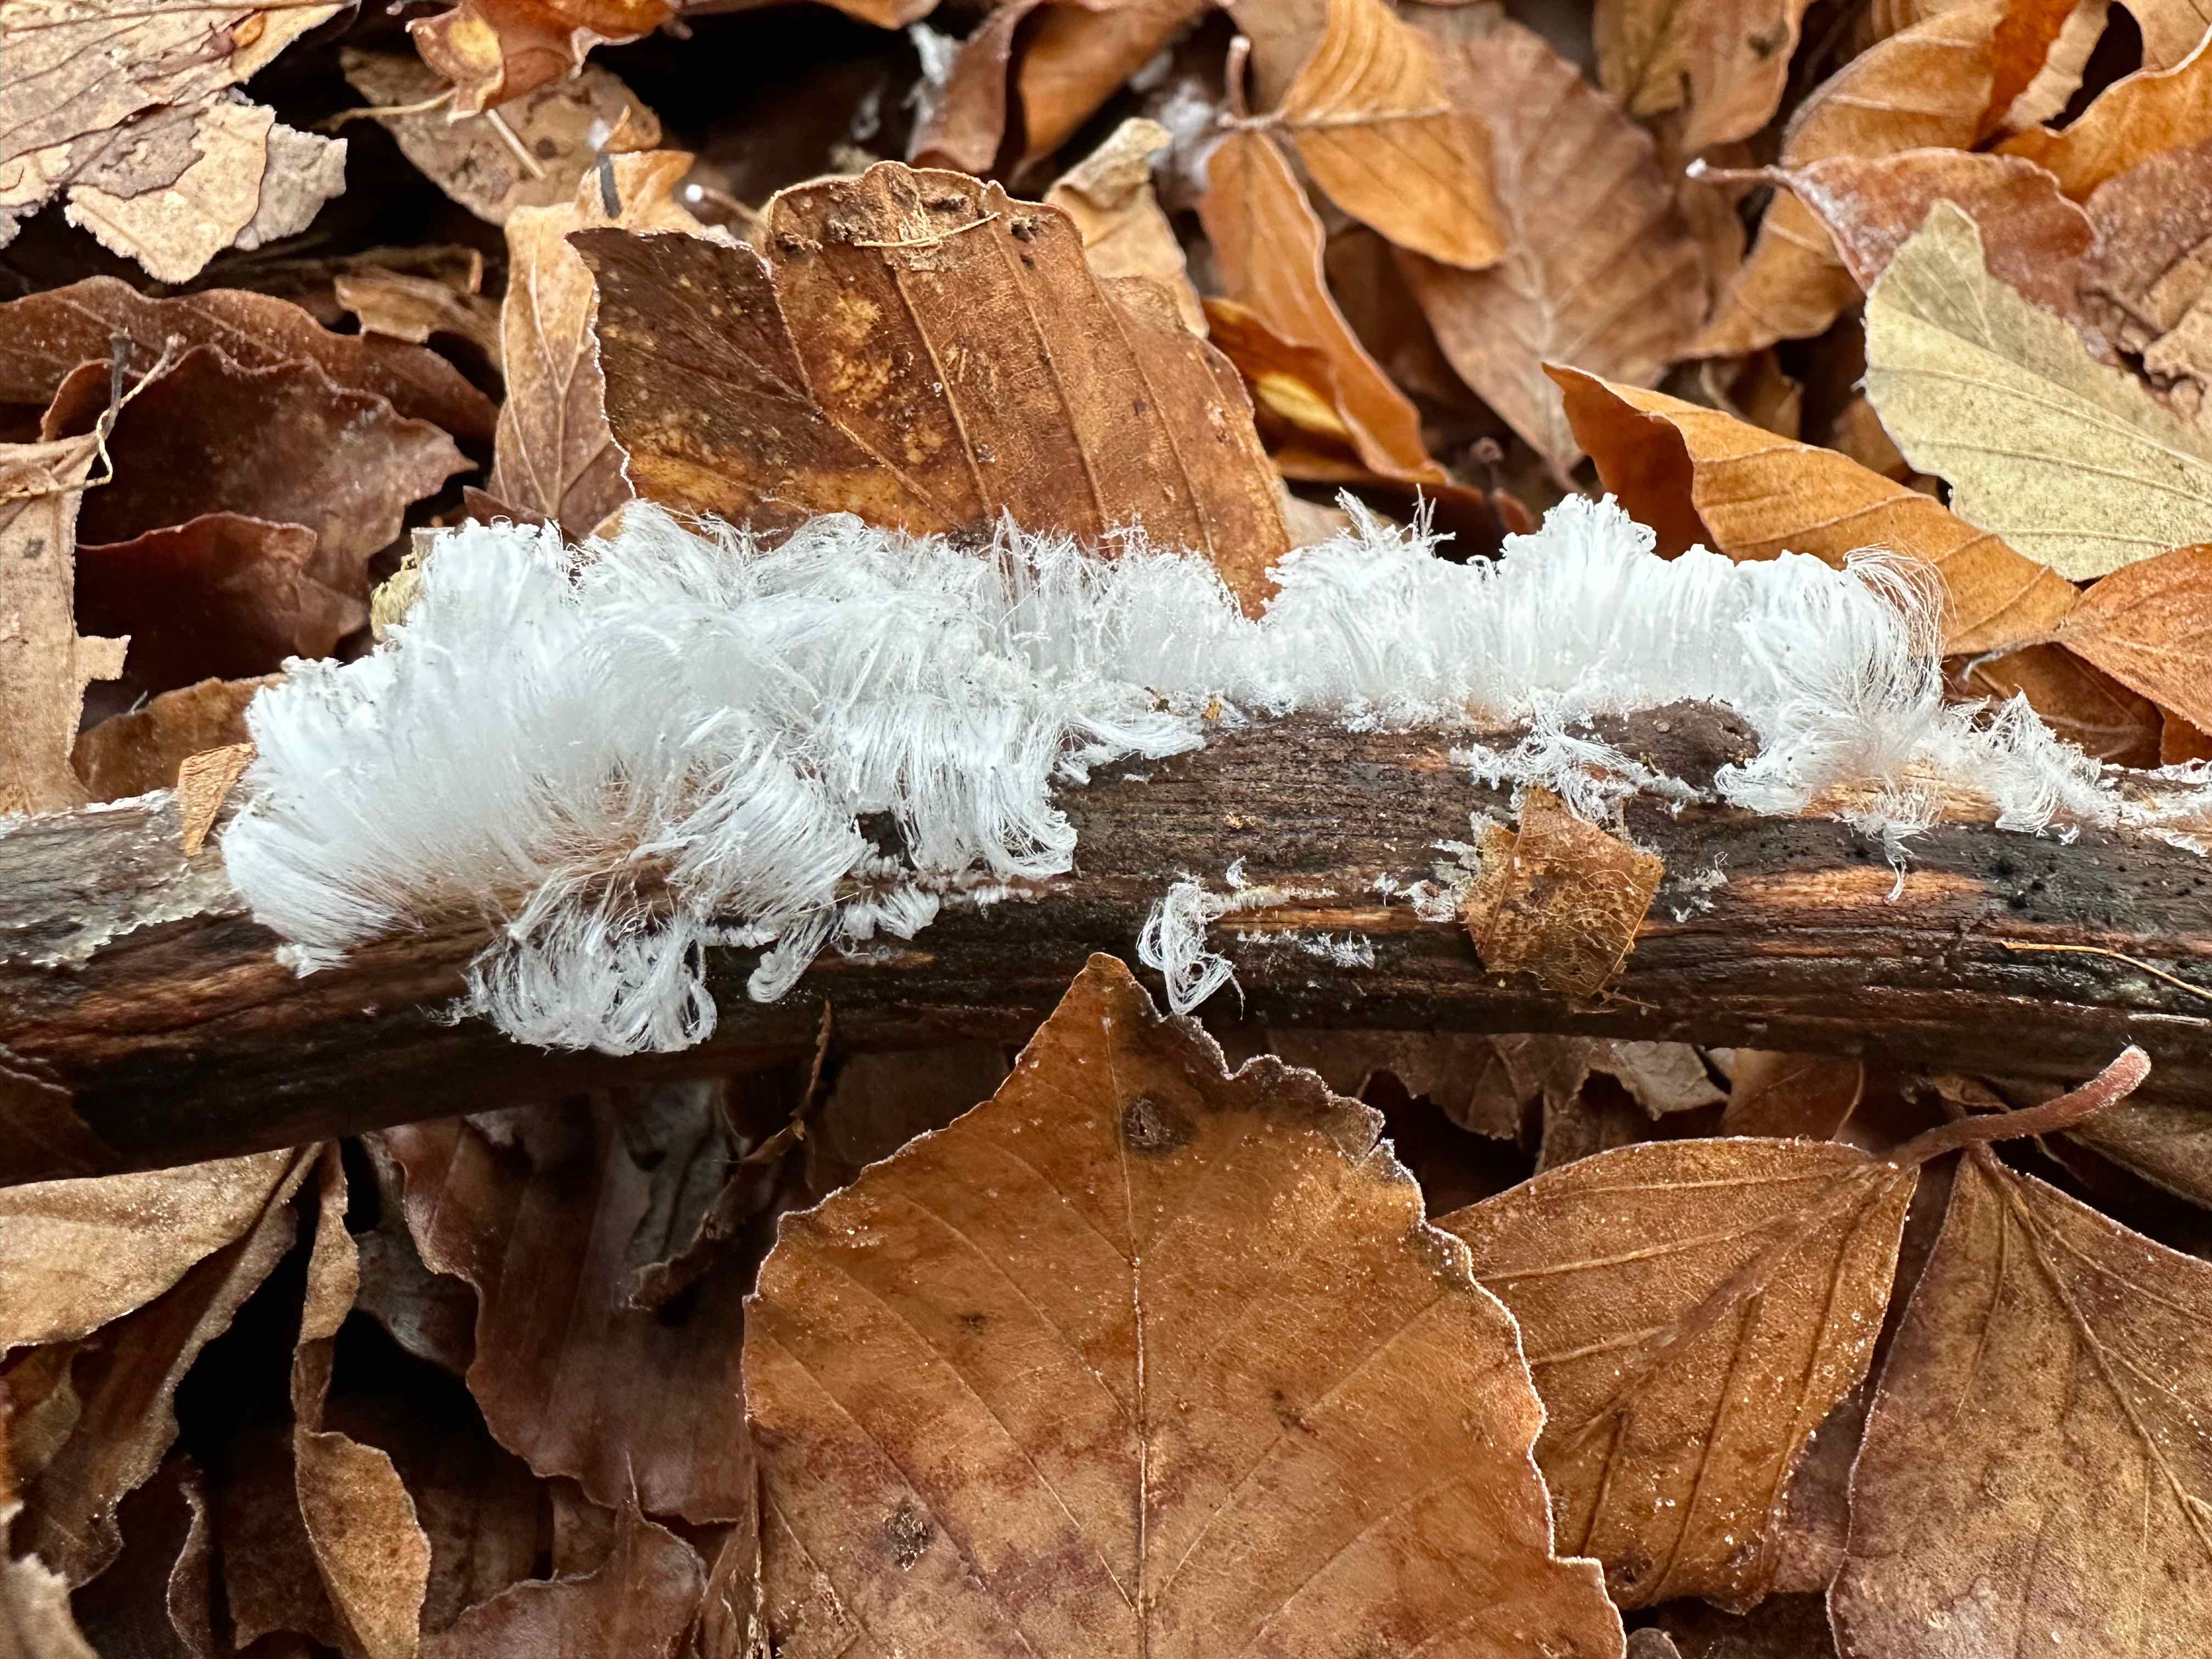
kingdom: Fungi
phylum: Basidiomycota
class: Tremellomycetes
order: Tremellales
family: Exidiaceae
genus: Exidiopsis
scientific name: Exidiopsis effusa
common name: smuk bævrehinde
